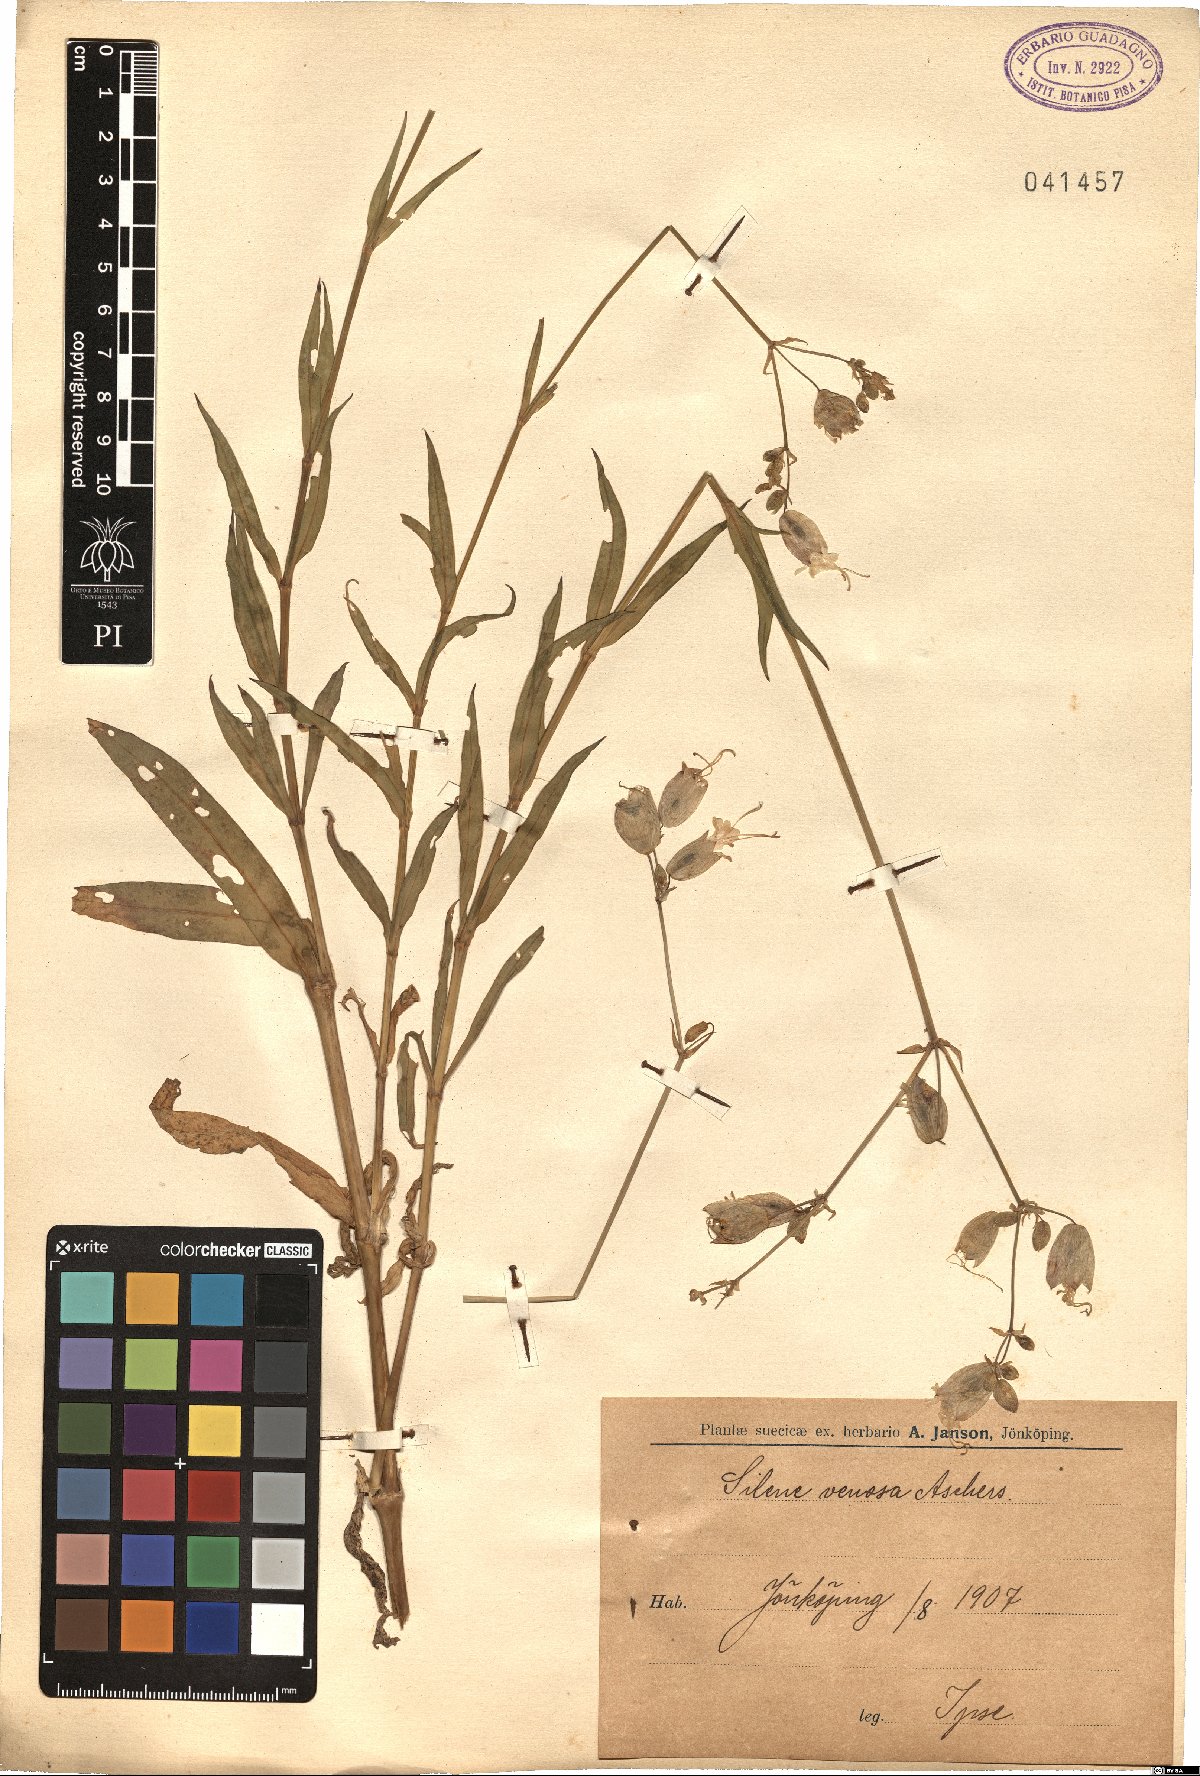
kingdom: Plantae
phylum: Tracheophyta
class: Magnoliopsida
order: Caryophyllales
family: Caryophyllaceae
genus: Silene
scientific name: Silene vulgaris
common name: Bladder campion
